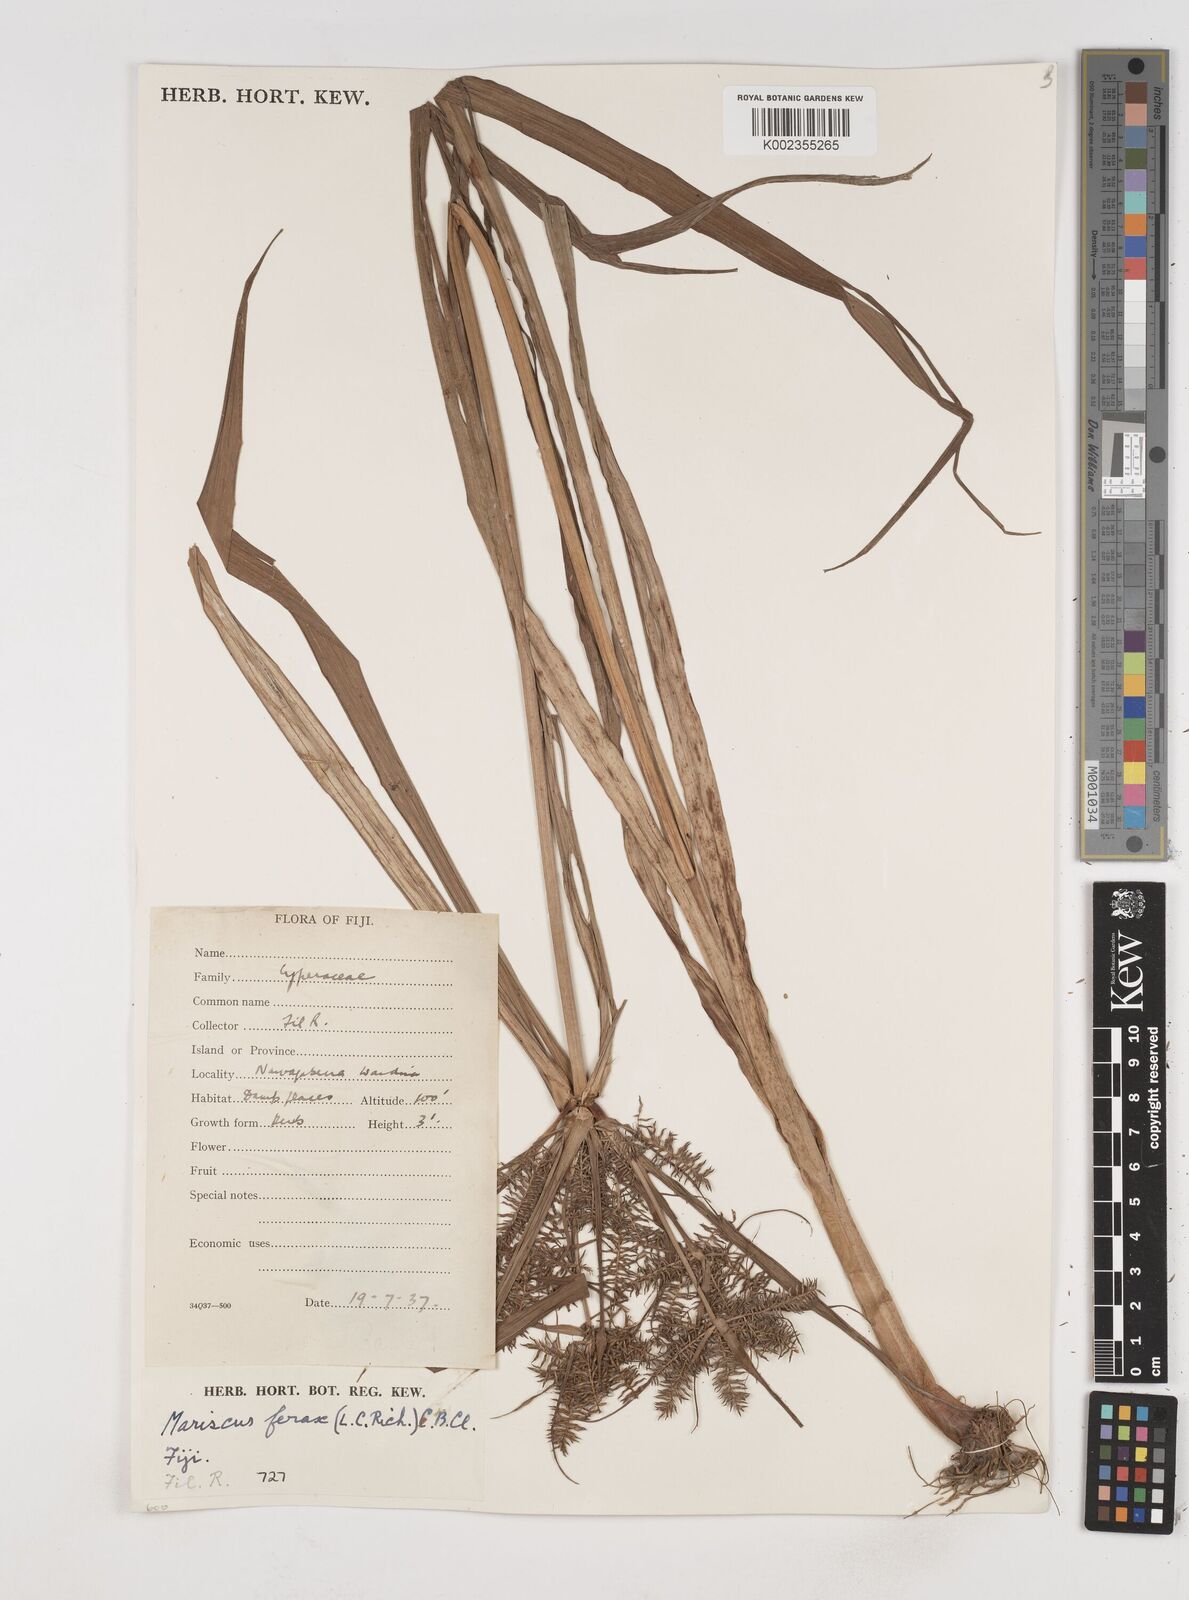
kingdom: Plantae
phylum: Tracheophyta
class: Liliopsida
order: Poales
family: Cyperaceae
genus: Cyperus
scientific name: Cyperus odoratus
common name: Fragrant flatsedge
